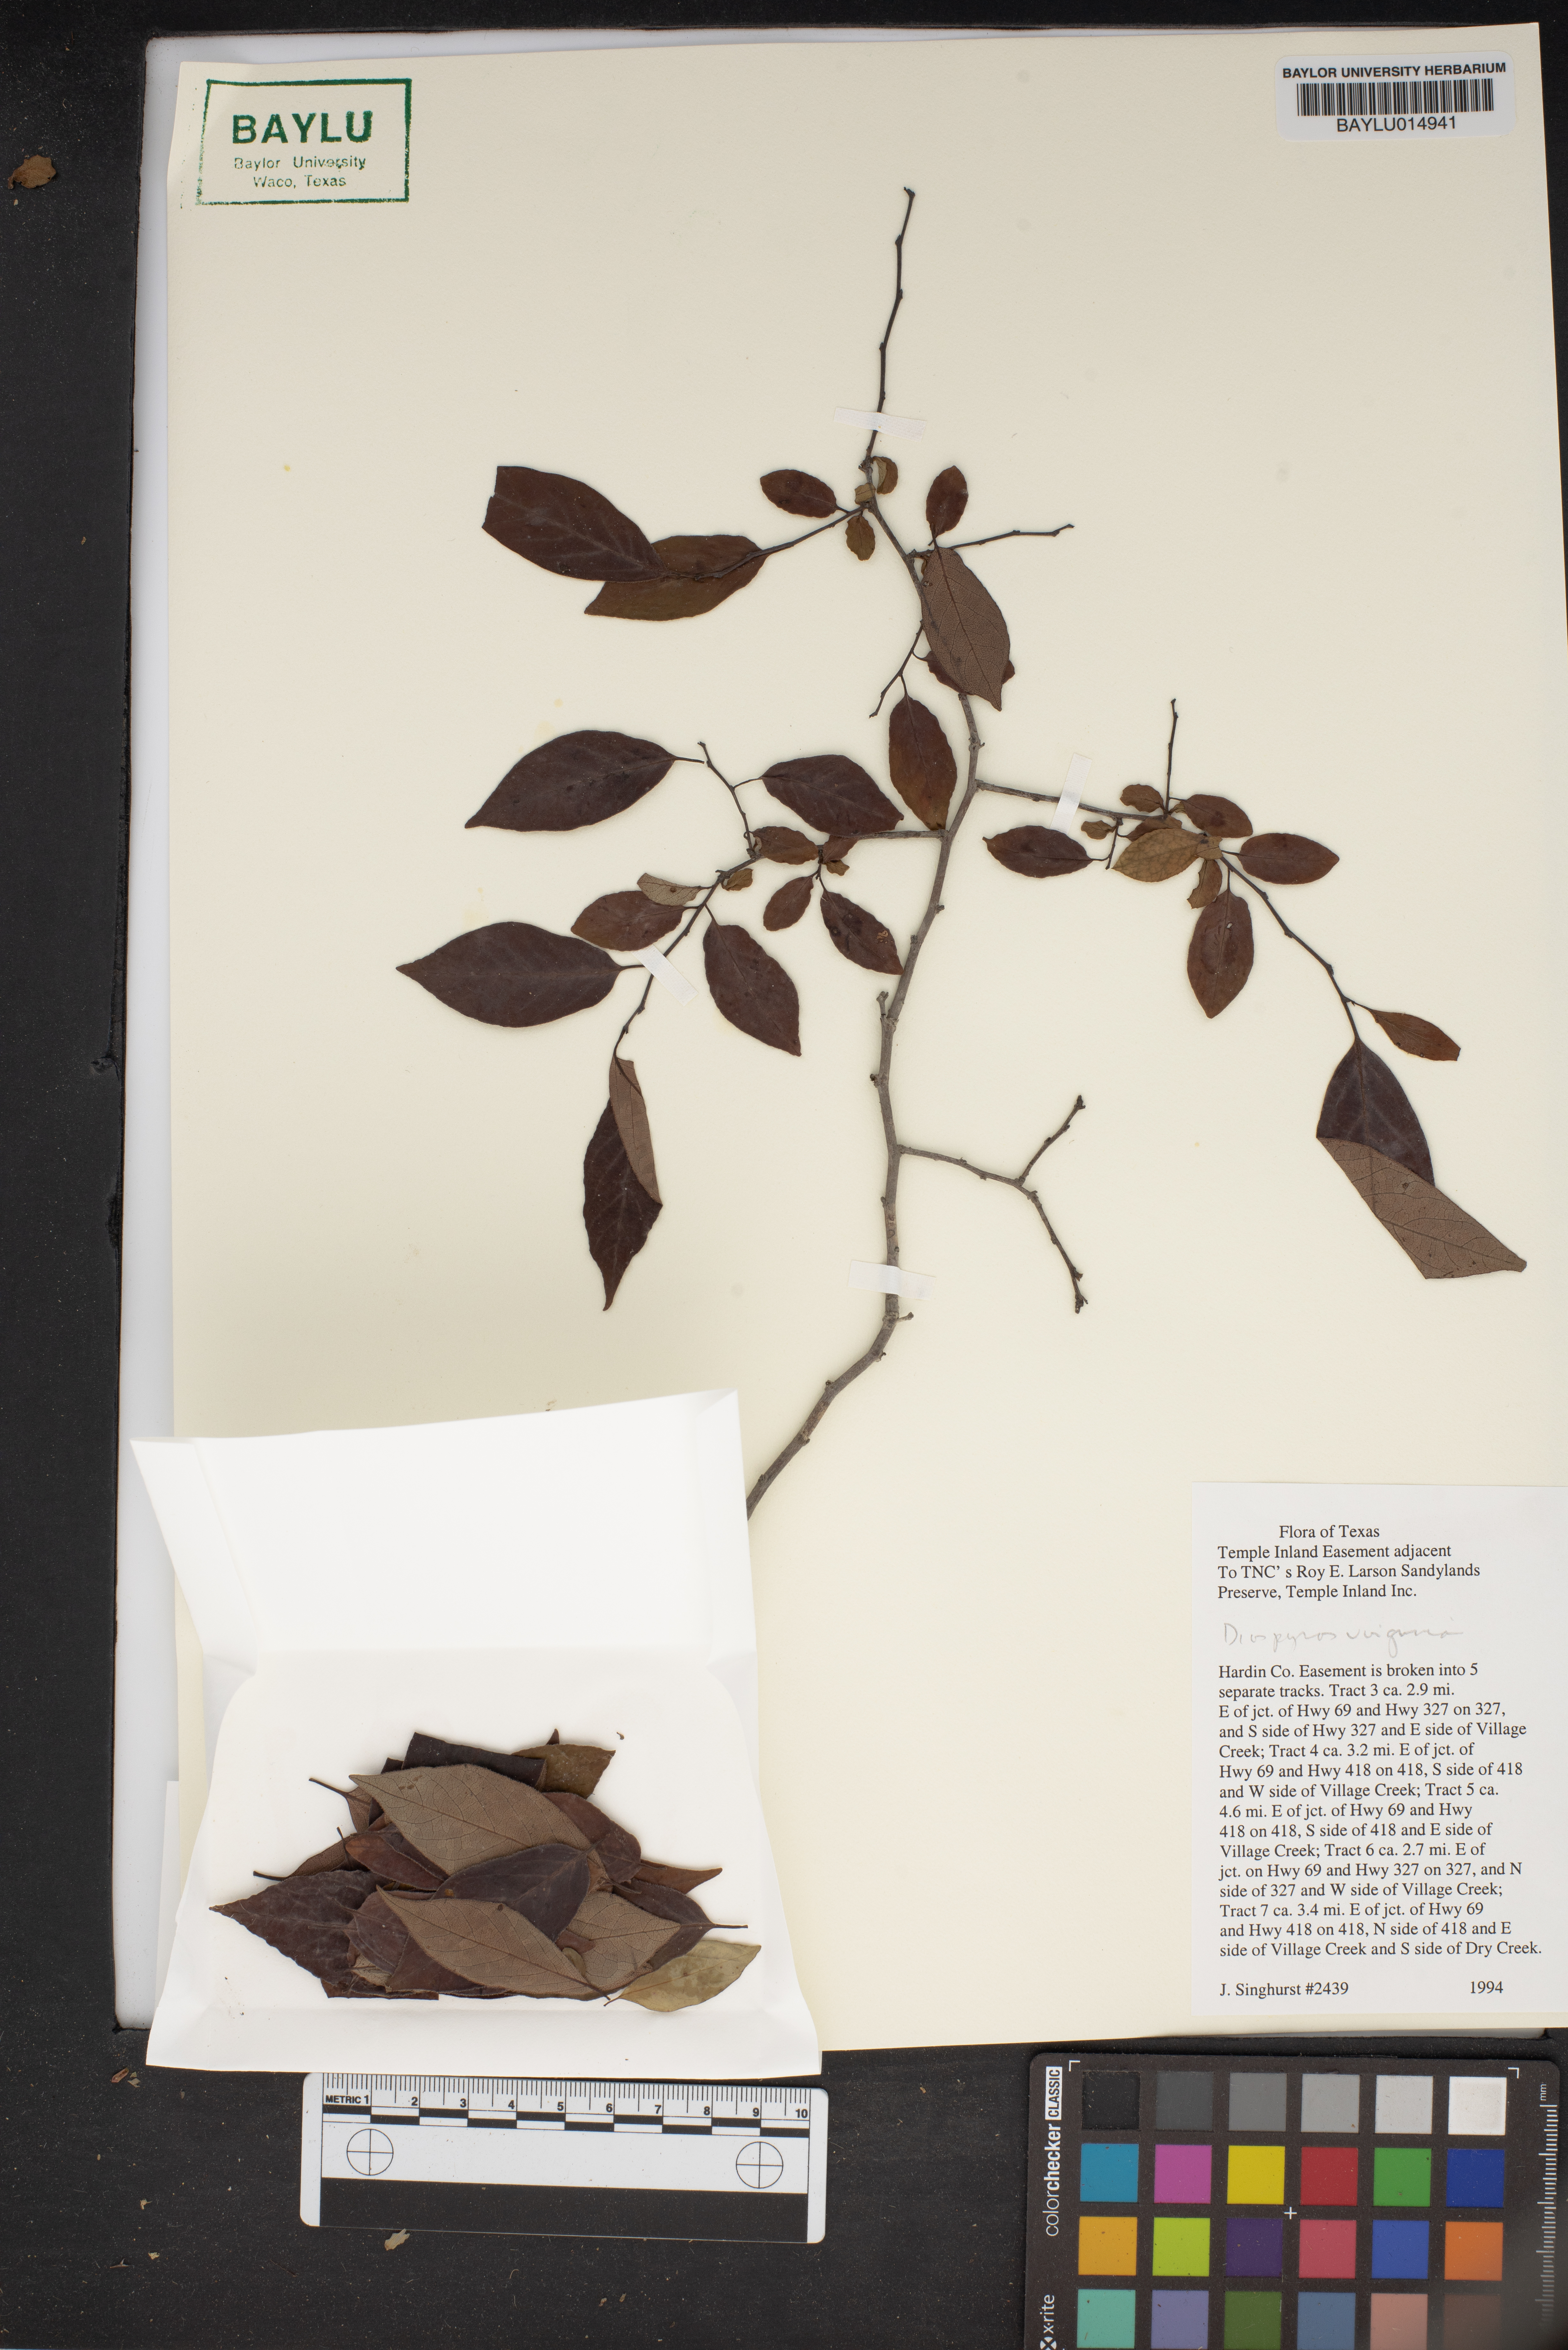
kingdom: Plantae
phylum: Tracheophyta
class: Magnoliopsida
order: Ericales
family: Ebenaceae
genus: Diospyros
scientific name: Diospyros virginiana
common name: Persimmon
